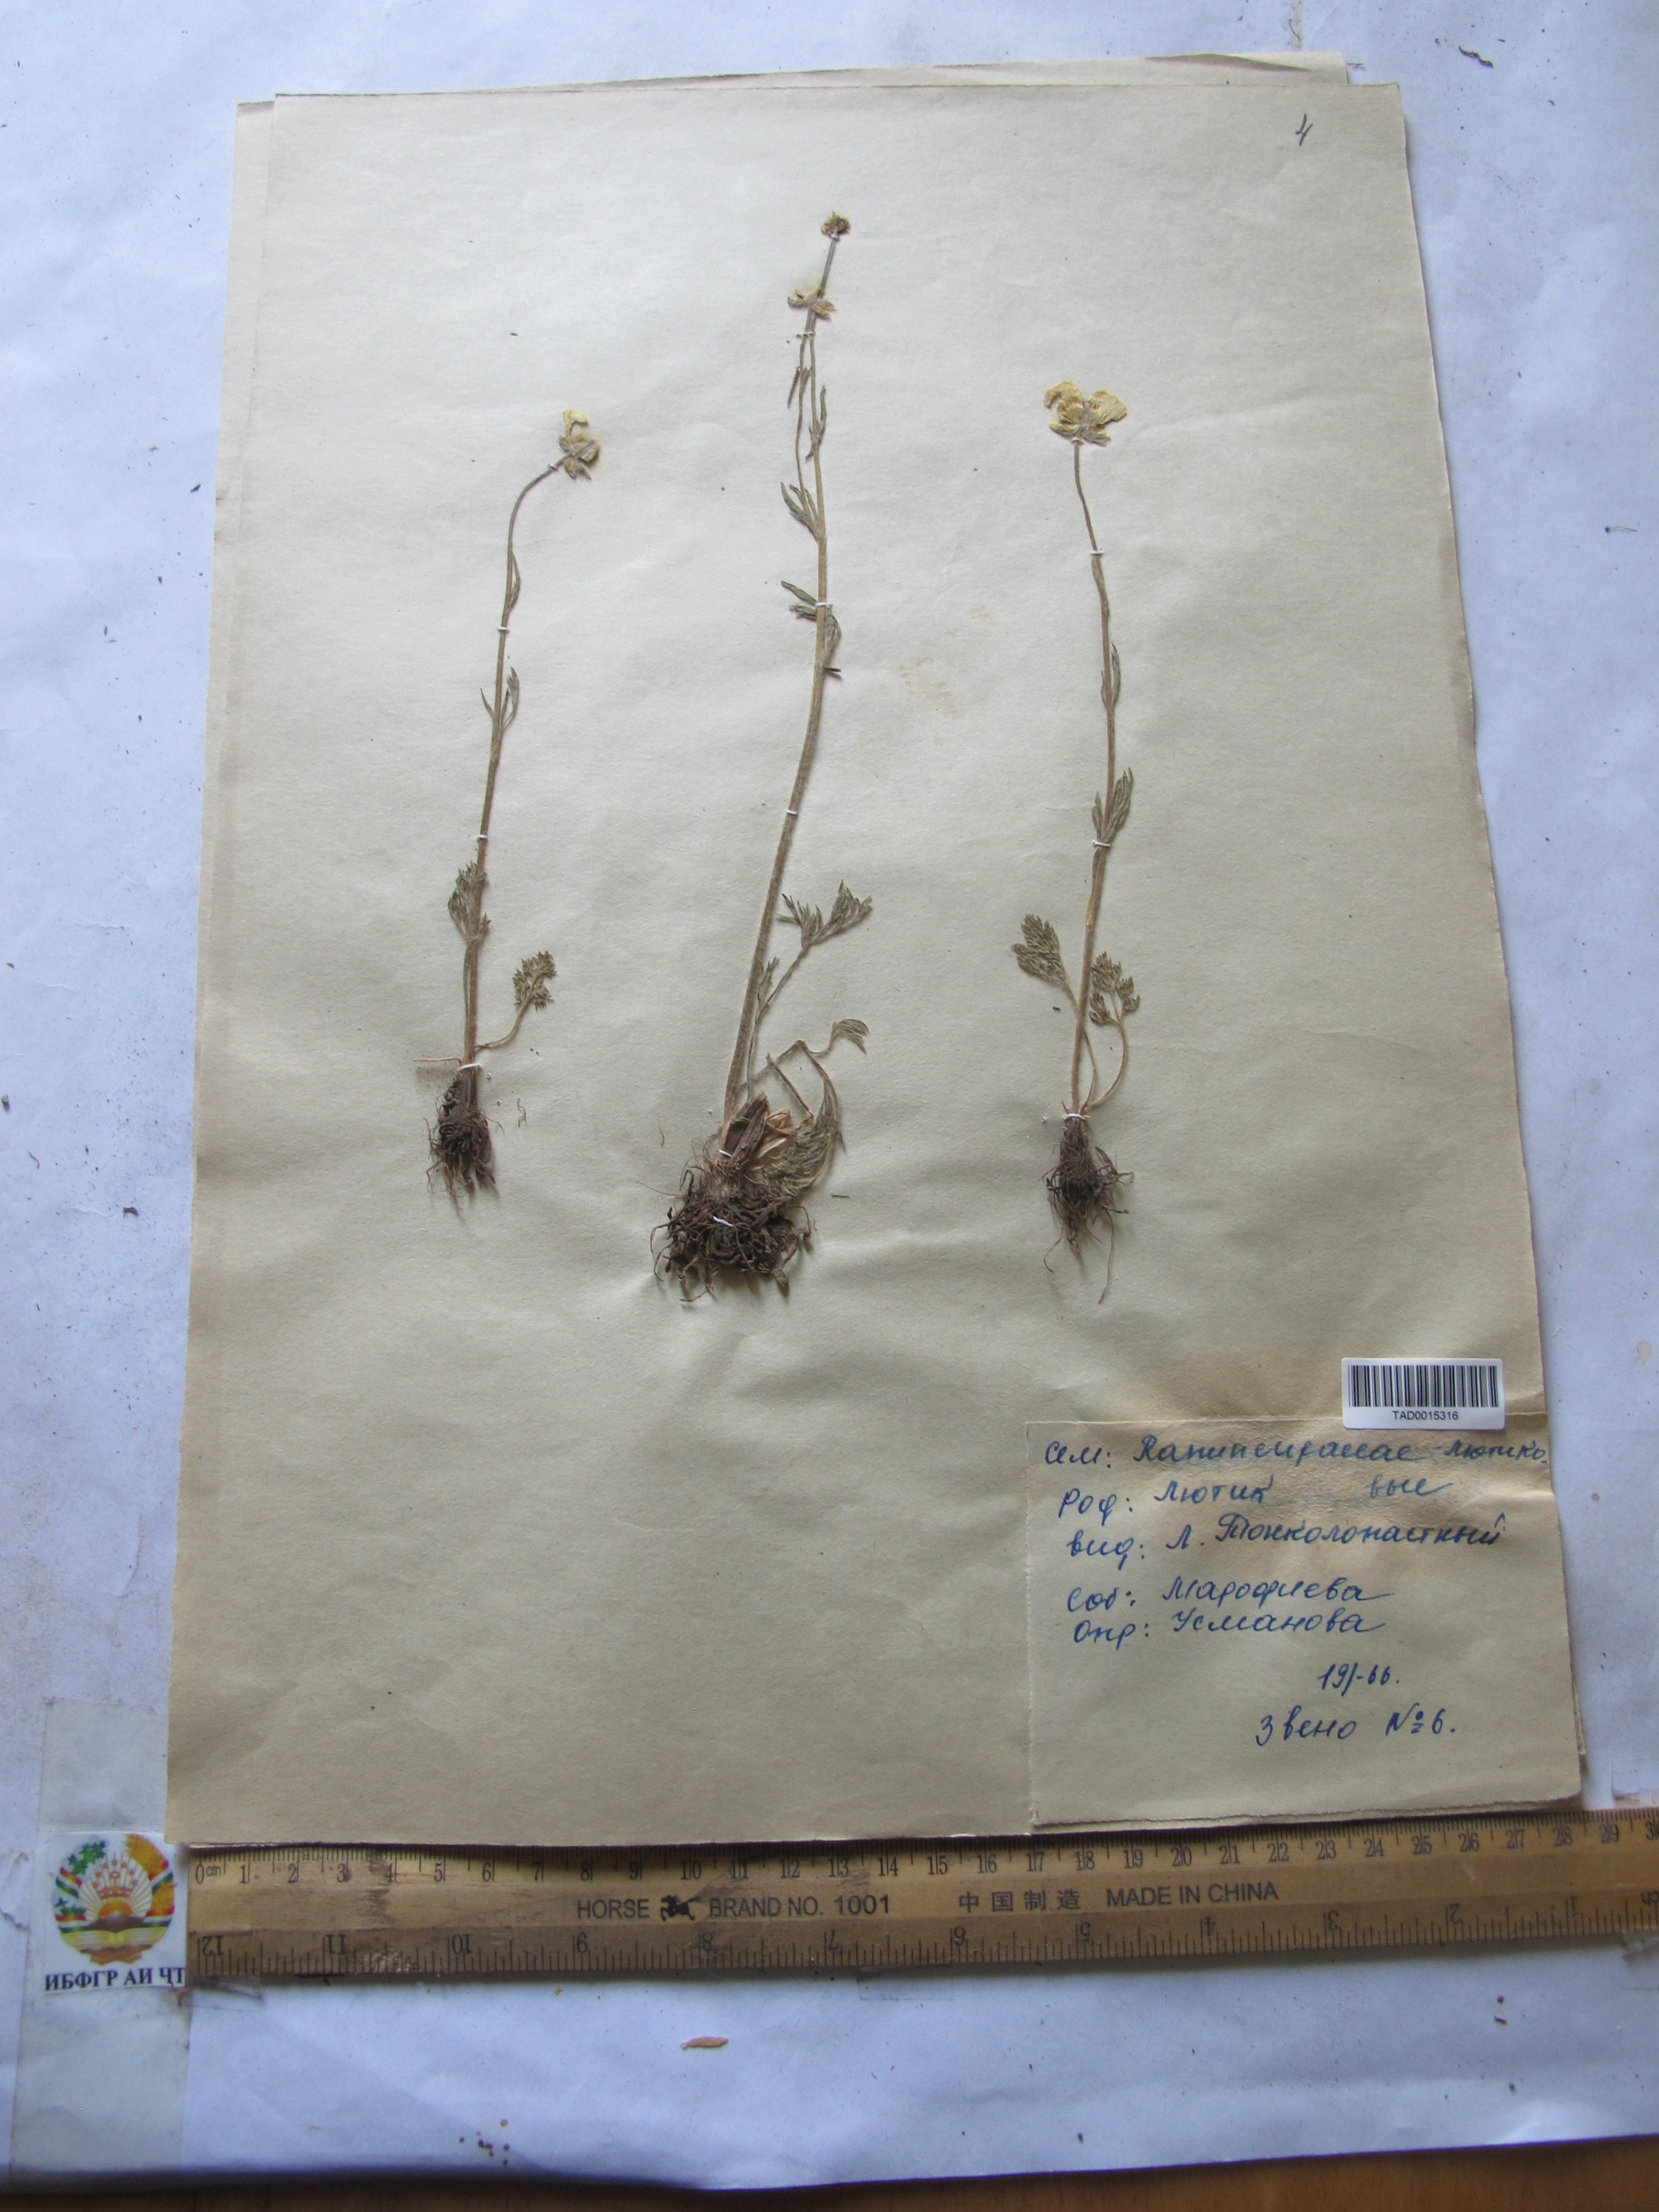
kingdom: Plantae
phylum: Tracheophyta
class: Magnoliopsida
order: Ranunculales
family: Ranunculaceae
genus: Ranunculus
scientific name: Ranunculus tenuilobus
